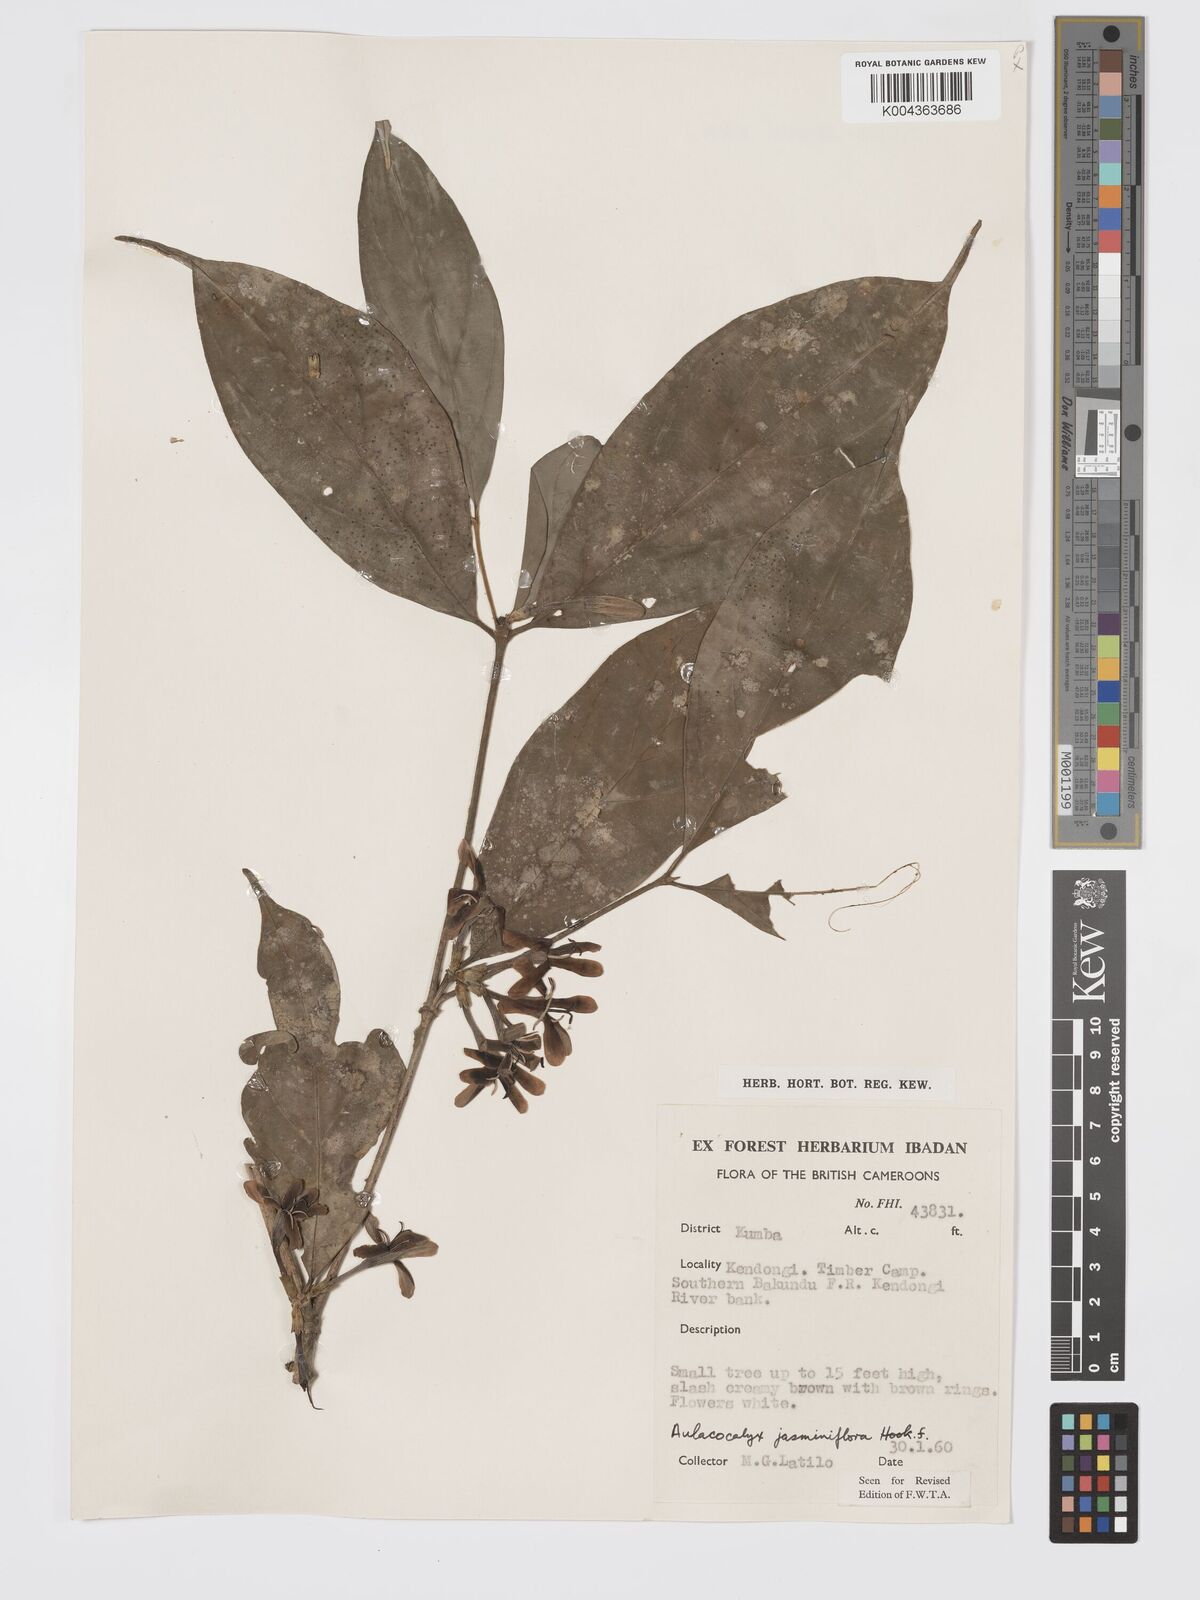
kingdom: Plantae
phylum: Tracheophyta
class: Magnoliopsida
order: Gentianales
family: Rubiaceae
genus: Aulacocalyx
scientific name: Aulacocalyx jasminiflora
